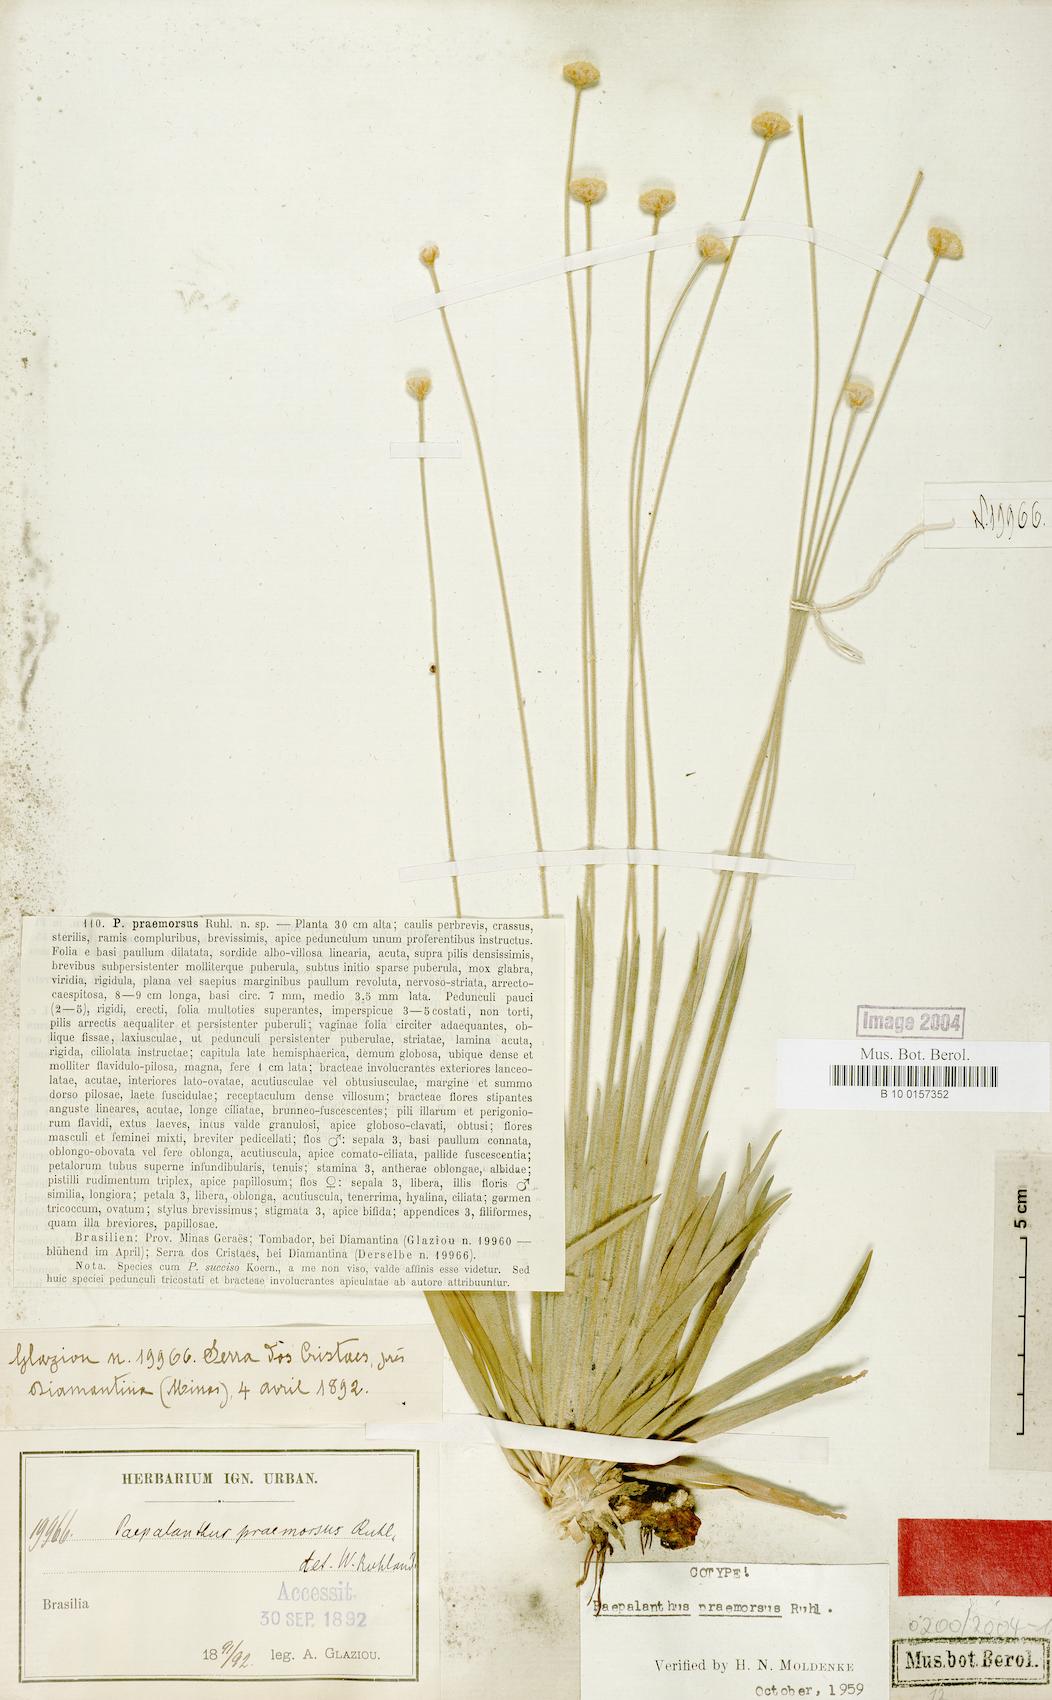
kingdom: Plantae
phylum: Tracheophyta
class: Liliopsida
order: Poales
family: Eriocaulaceae
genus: Paepalanthus
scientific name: Paepalanthus praemorsus
